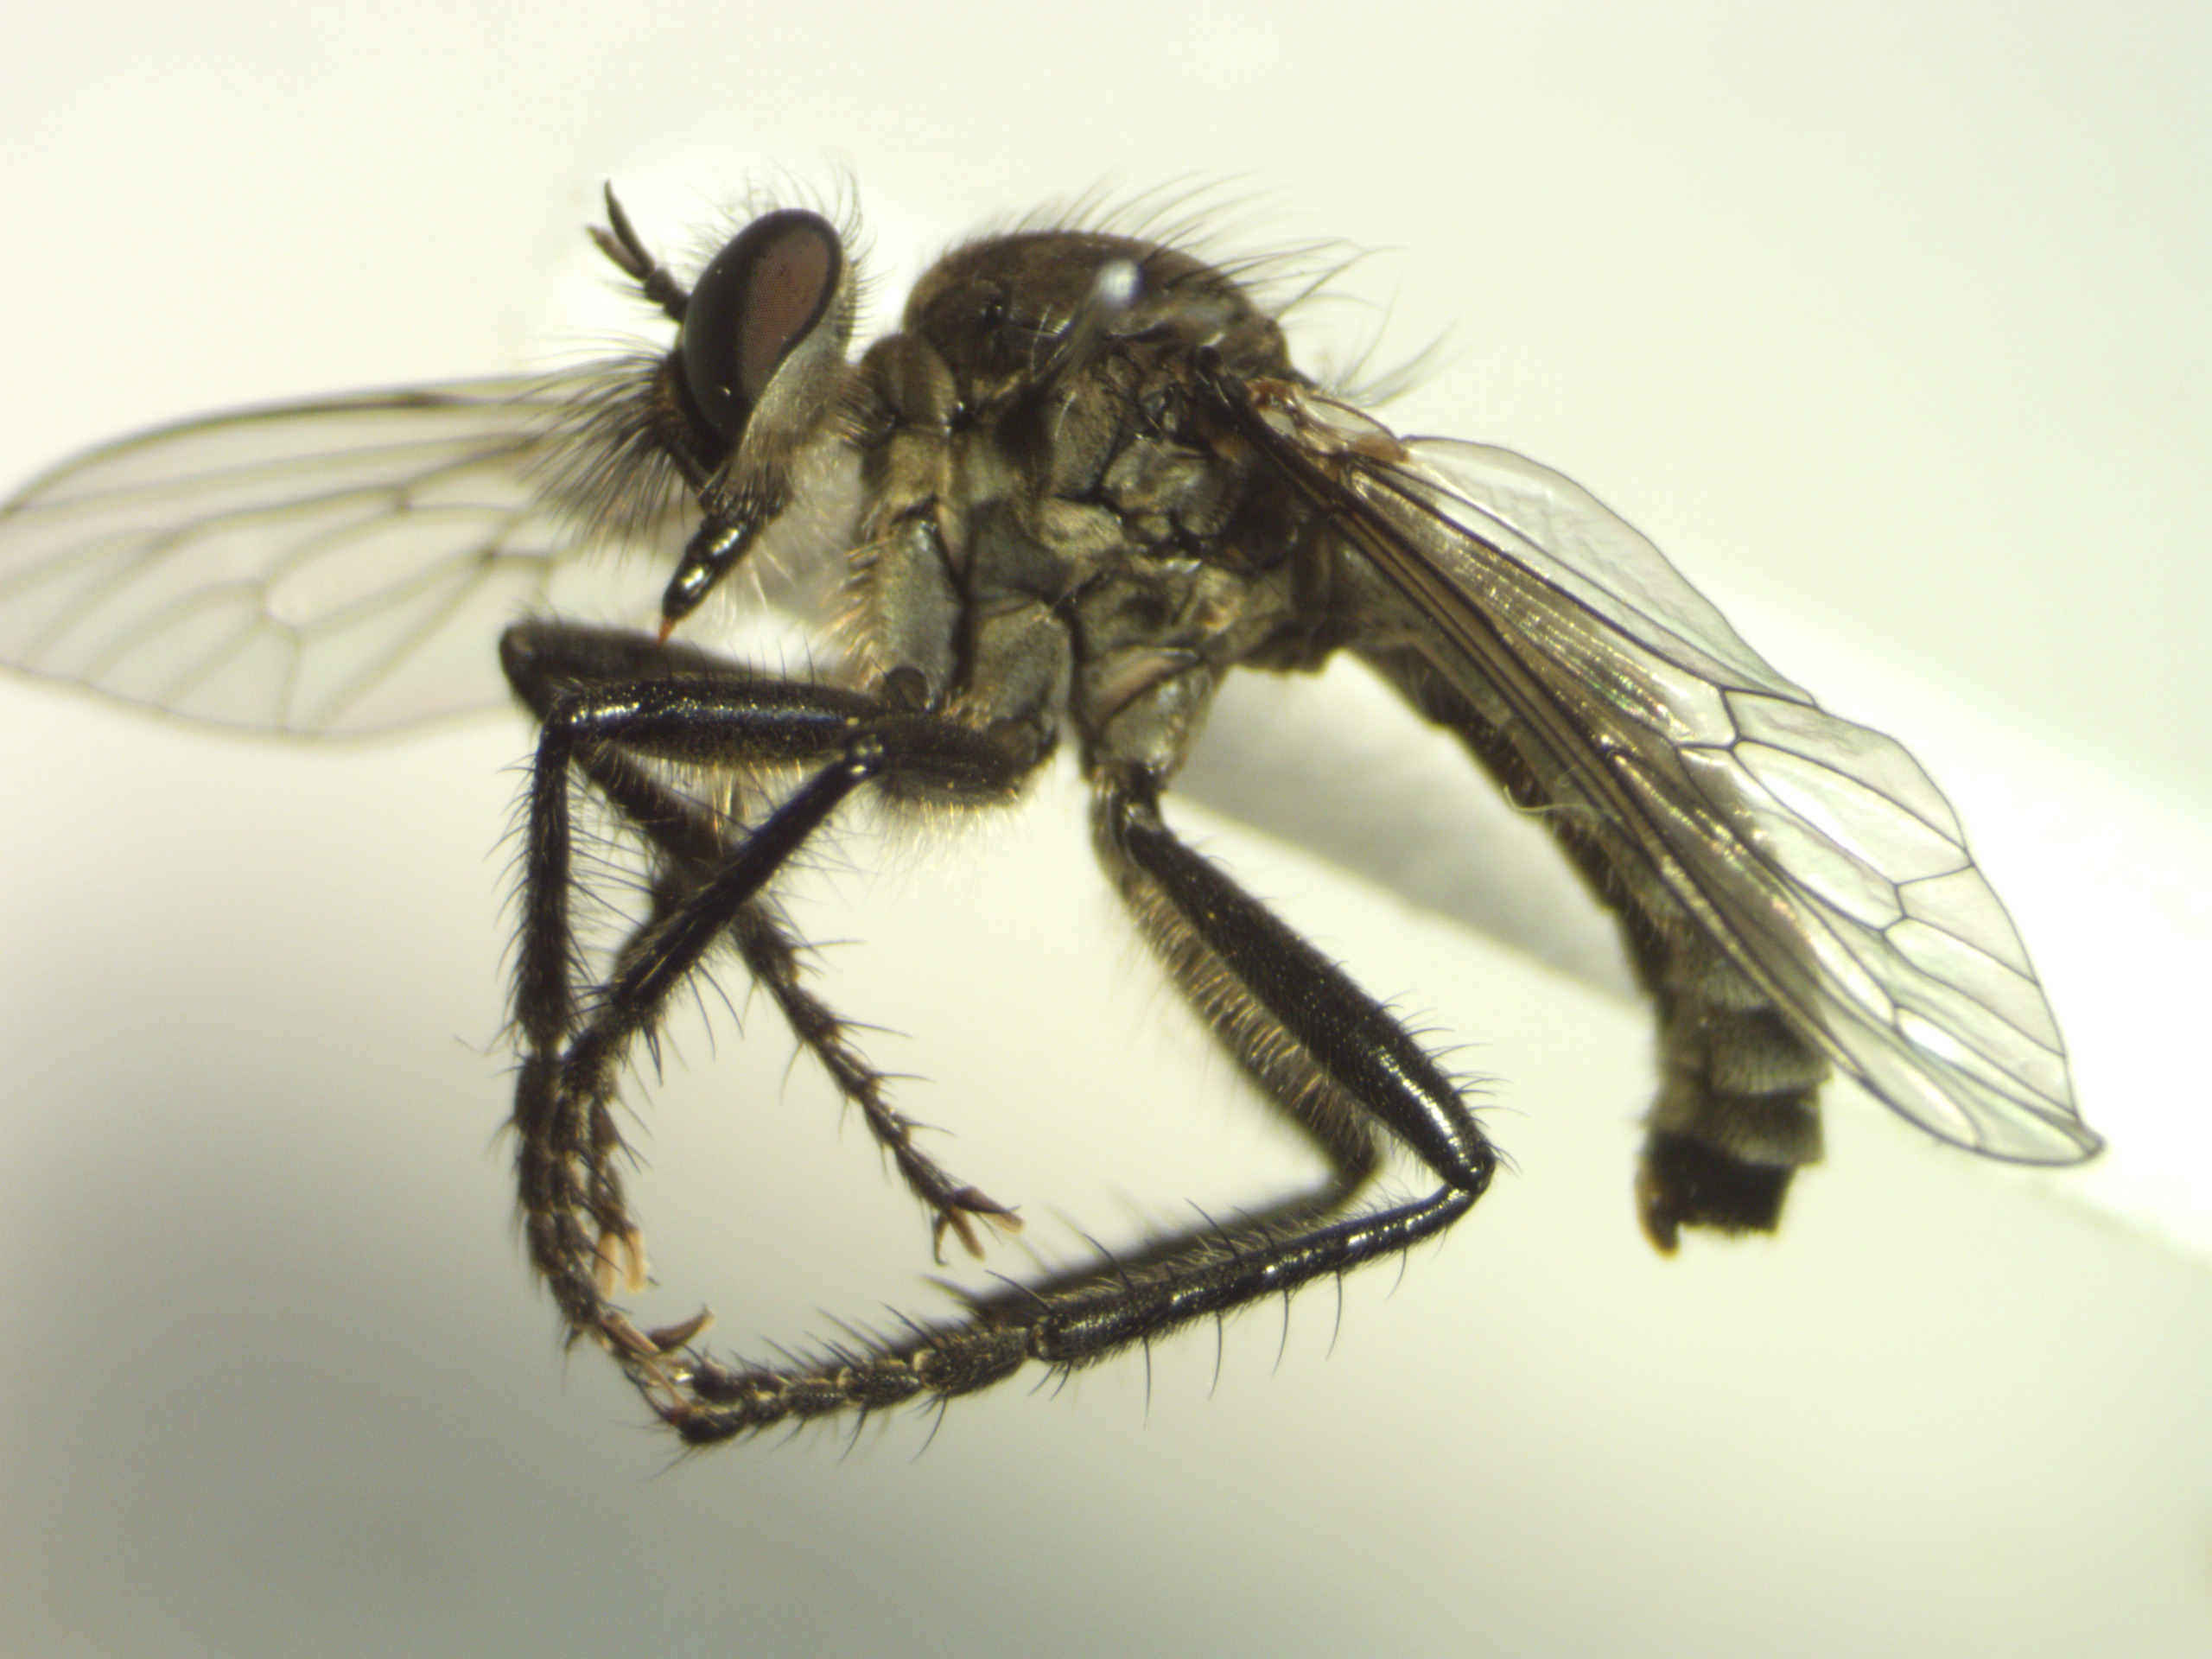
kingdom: Animalia
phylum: Arthropoda
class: Insecta
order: Diptera
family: Asilidae
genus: Lasiopogon
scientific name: Lasiopogon cinctus
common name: Almindelig båndrovflue
